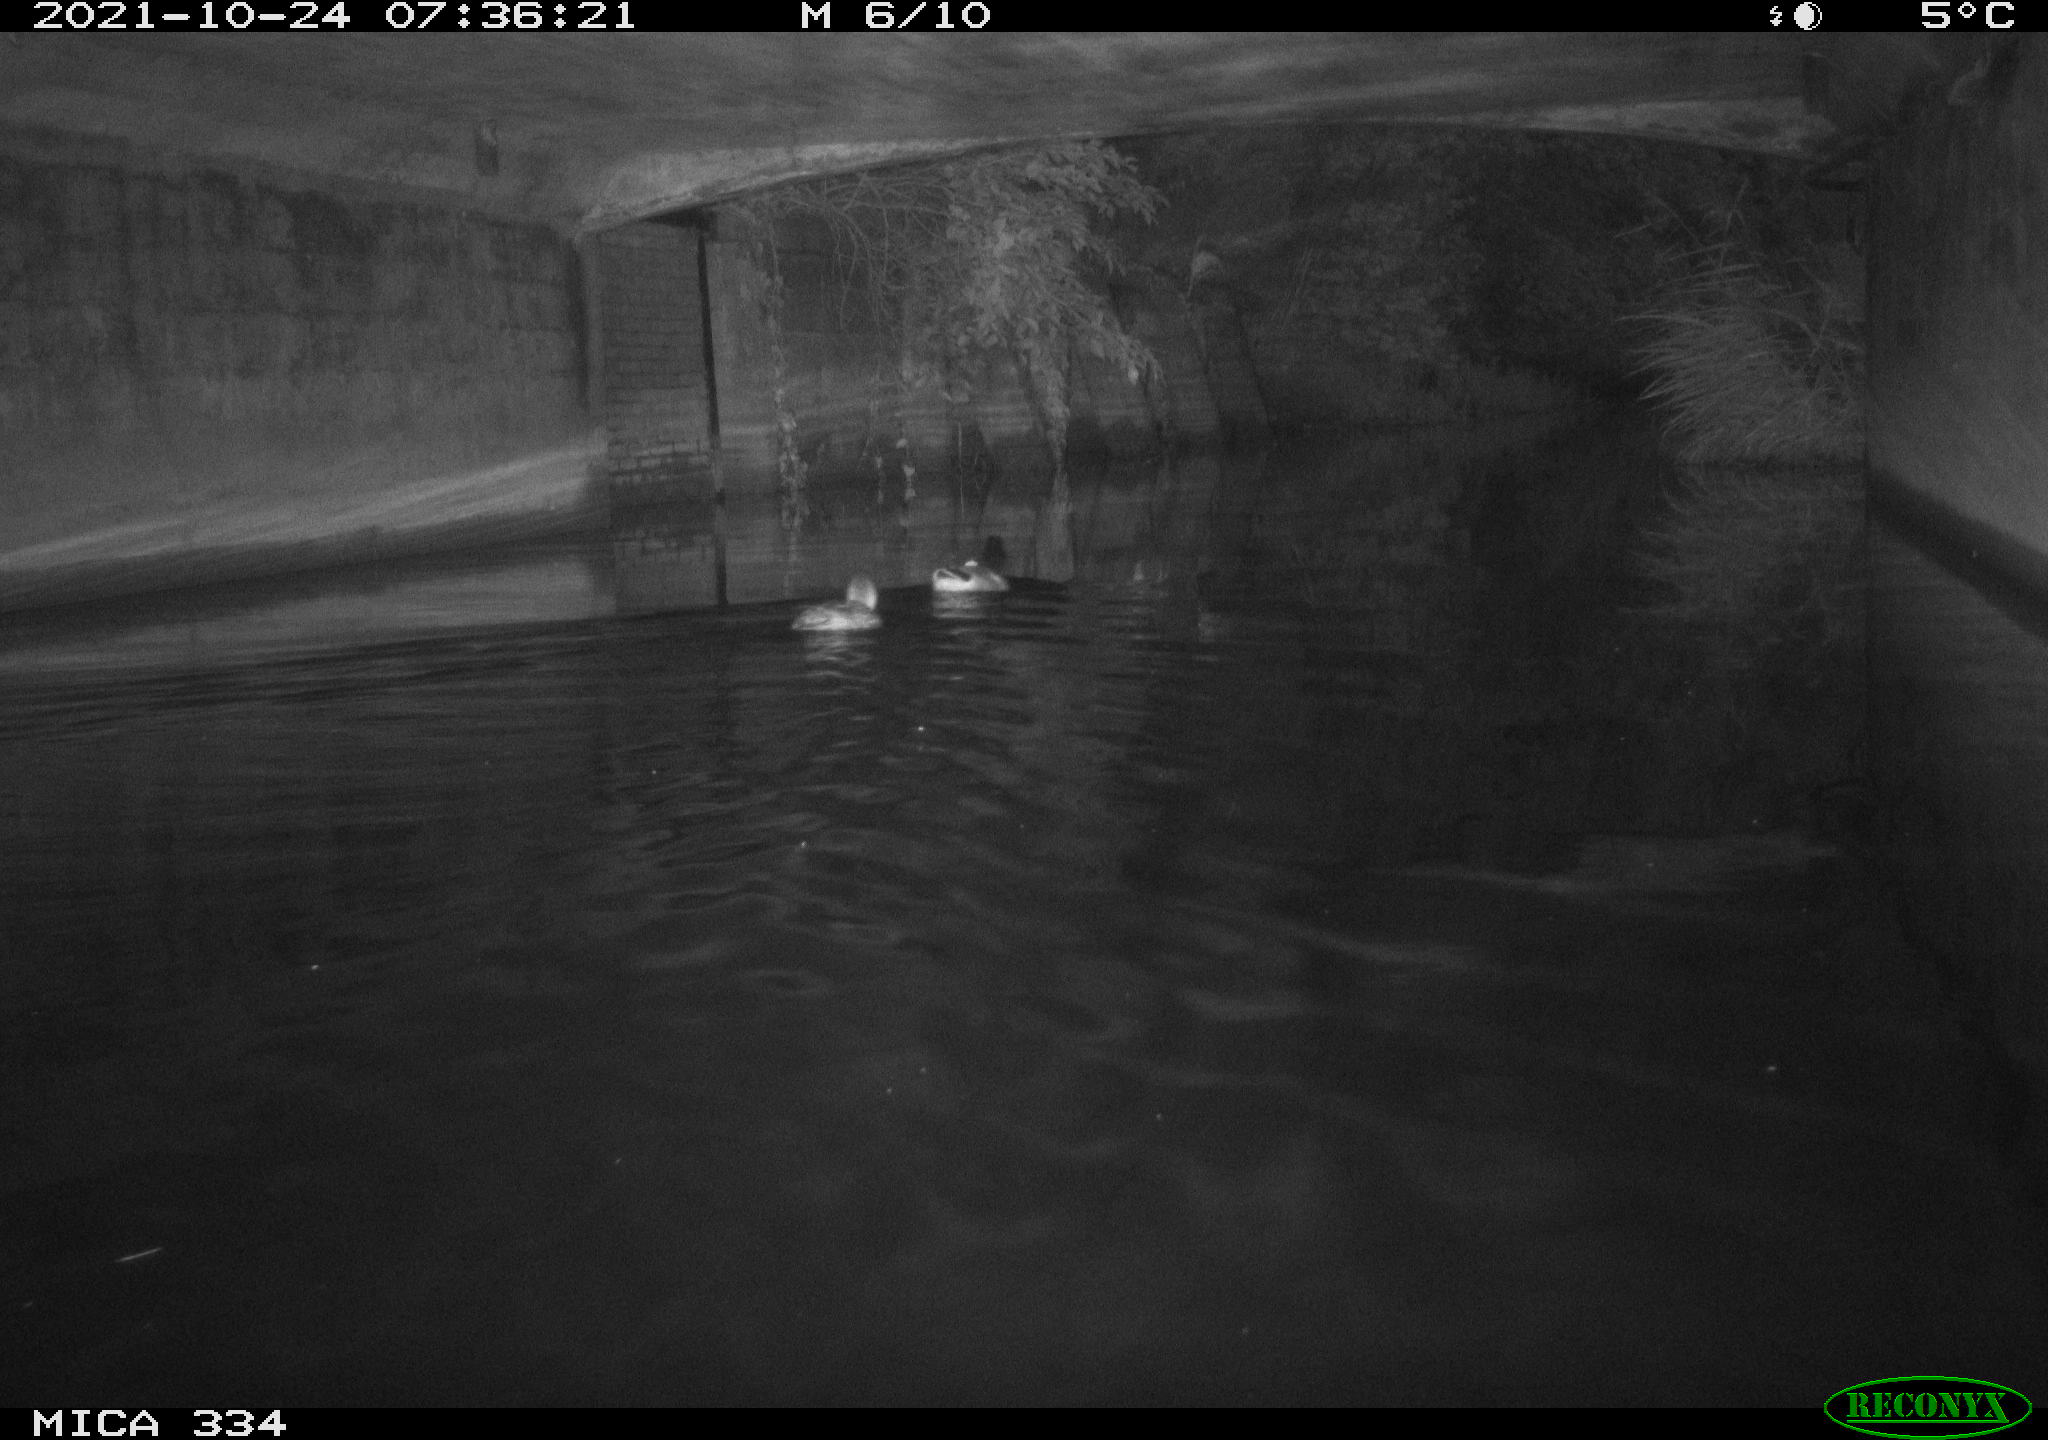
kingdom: Animalia
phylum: Chordata
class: Aves
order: Anseriformes
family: Anatidae
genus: Anas
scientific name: Anas platyrhynchos
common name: Mallard
